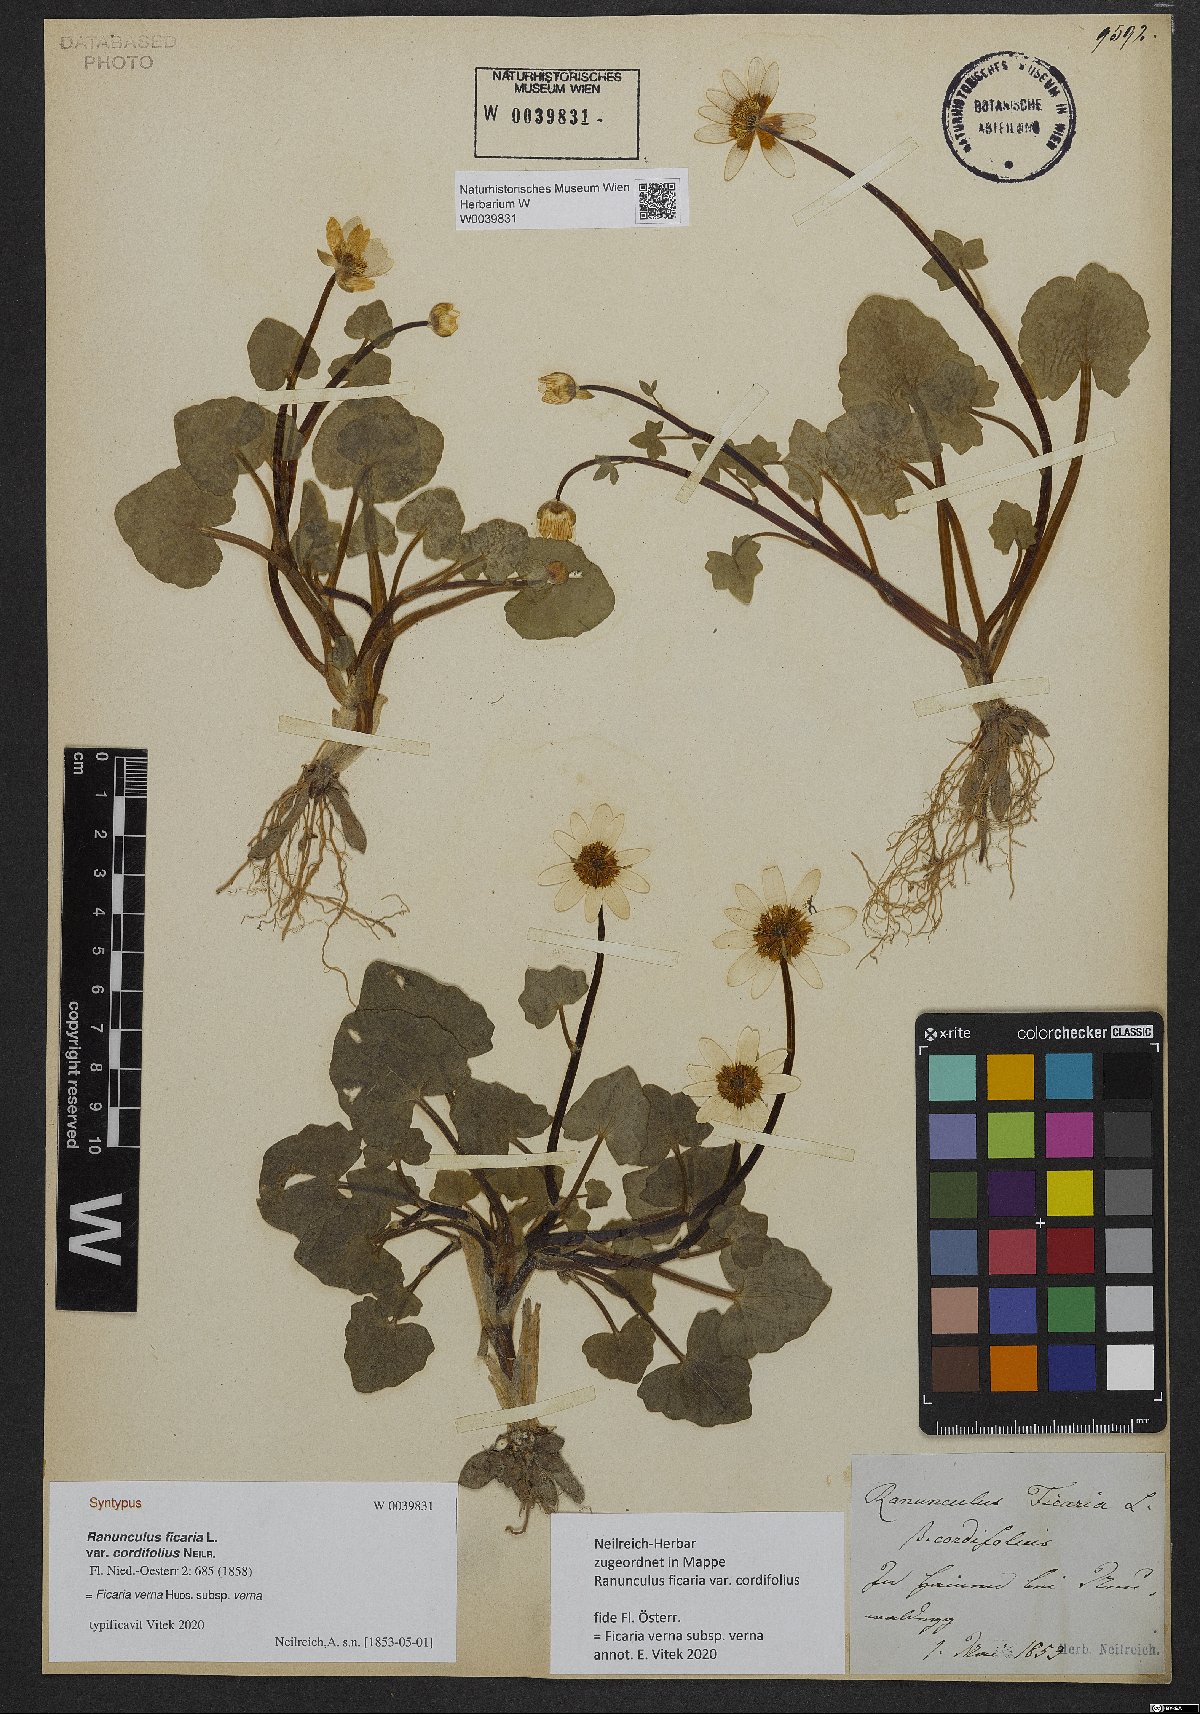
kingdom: Plantae
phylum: Tracheophyta
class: Magnoliopsida
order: Ranunculales
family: Ranunculaceae
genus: Ficaria
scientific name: Ficaria verna
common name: Lesser celandine
